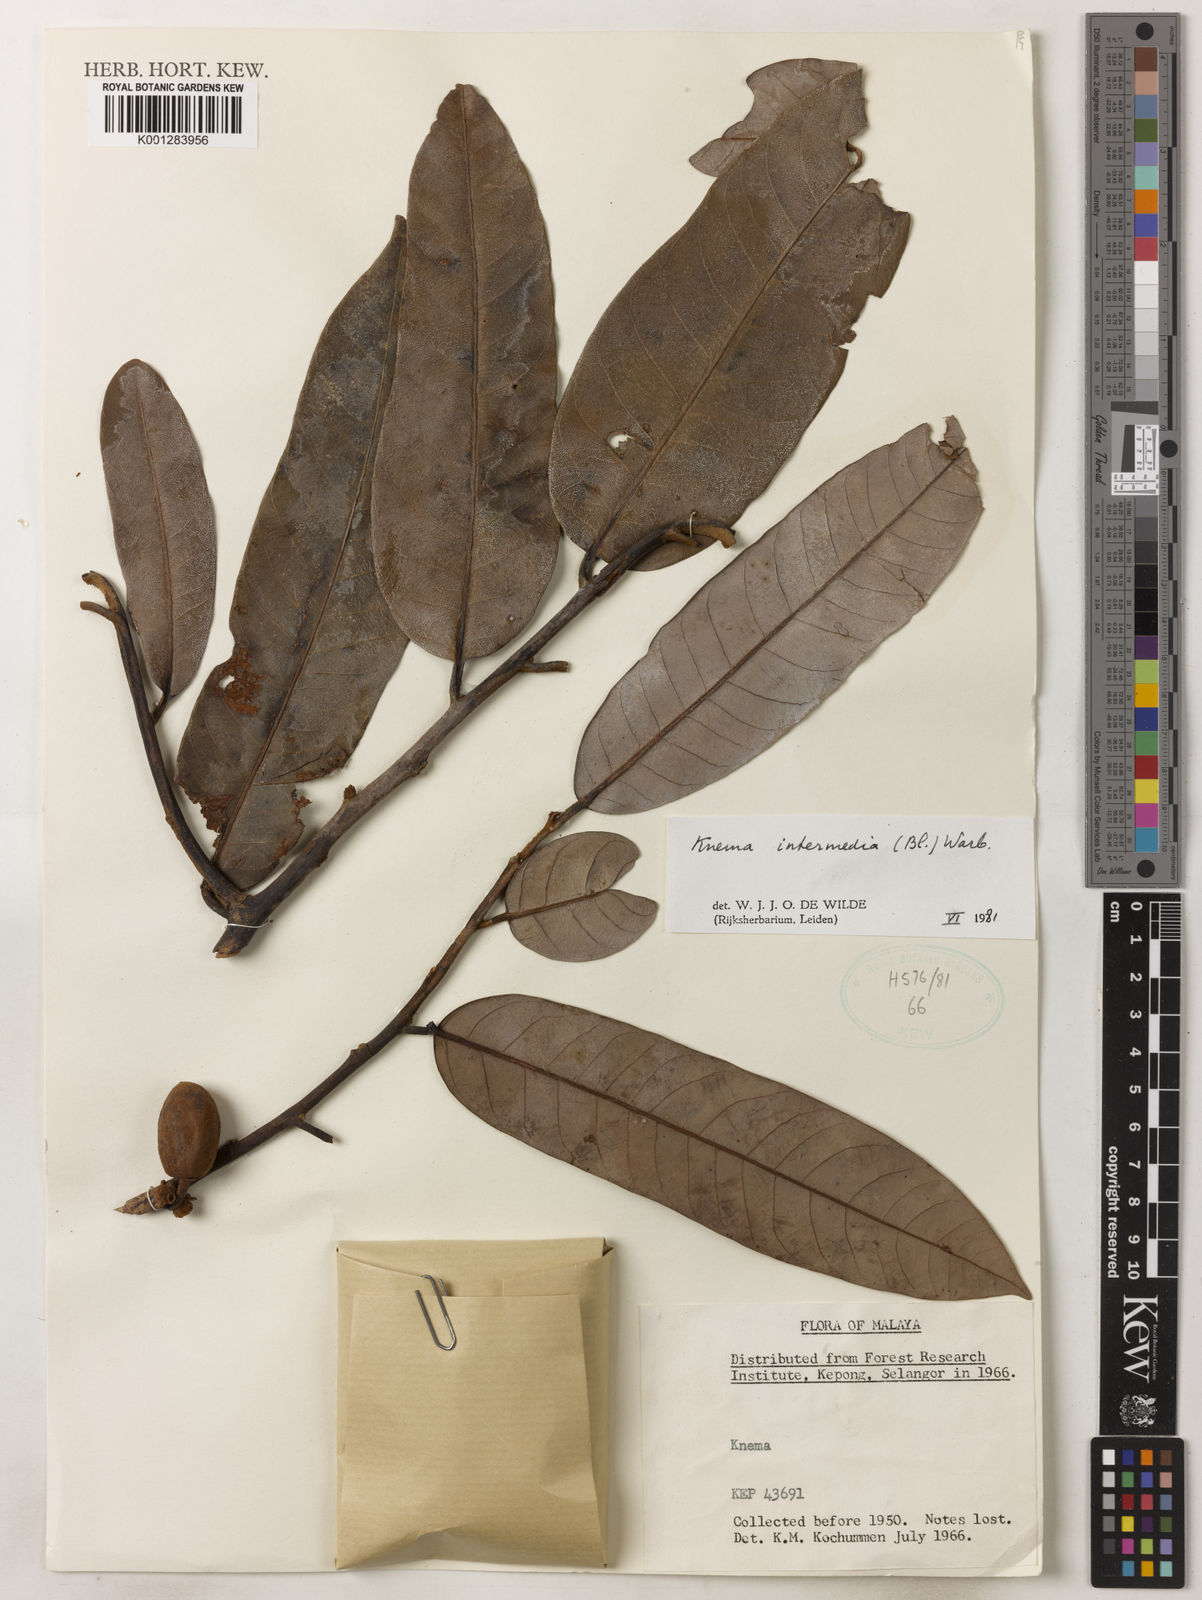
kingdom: Plantae
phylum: Tracheophyta
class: Magnoliopsida
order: Magnoliales
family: Myristicaceae
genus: Knema
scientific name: Knema intermedia
